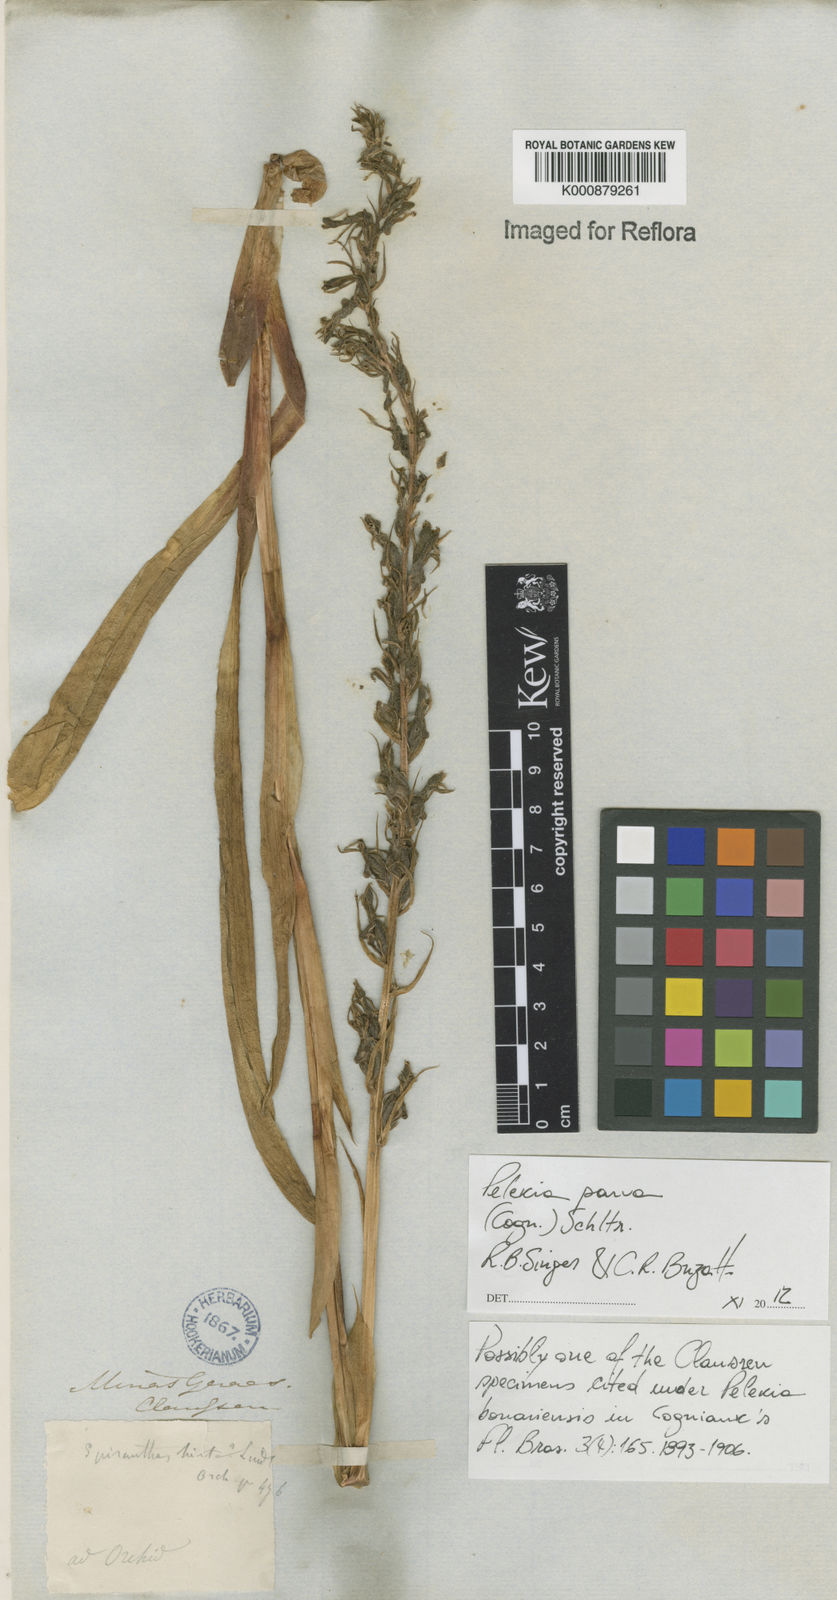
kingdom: Plantae
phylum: Tracheophyta
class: Liliopsida
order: Asparagales
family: Orchidaceae
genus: Pelexia
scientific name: Pelexia parva
